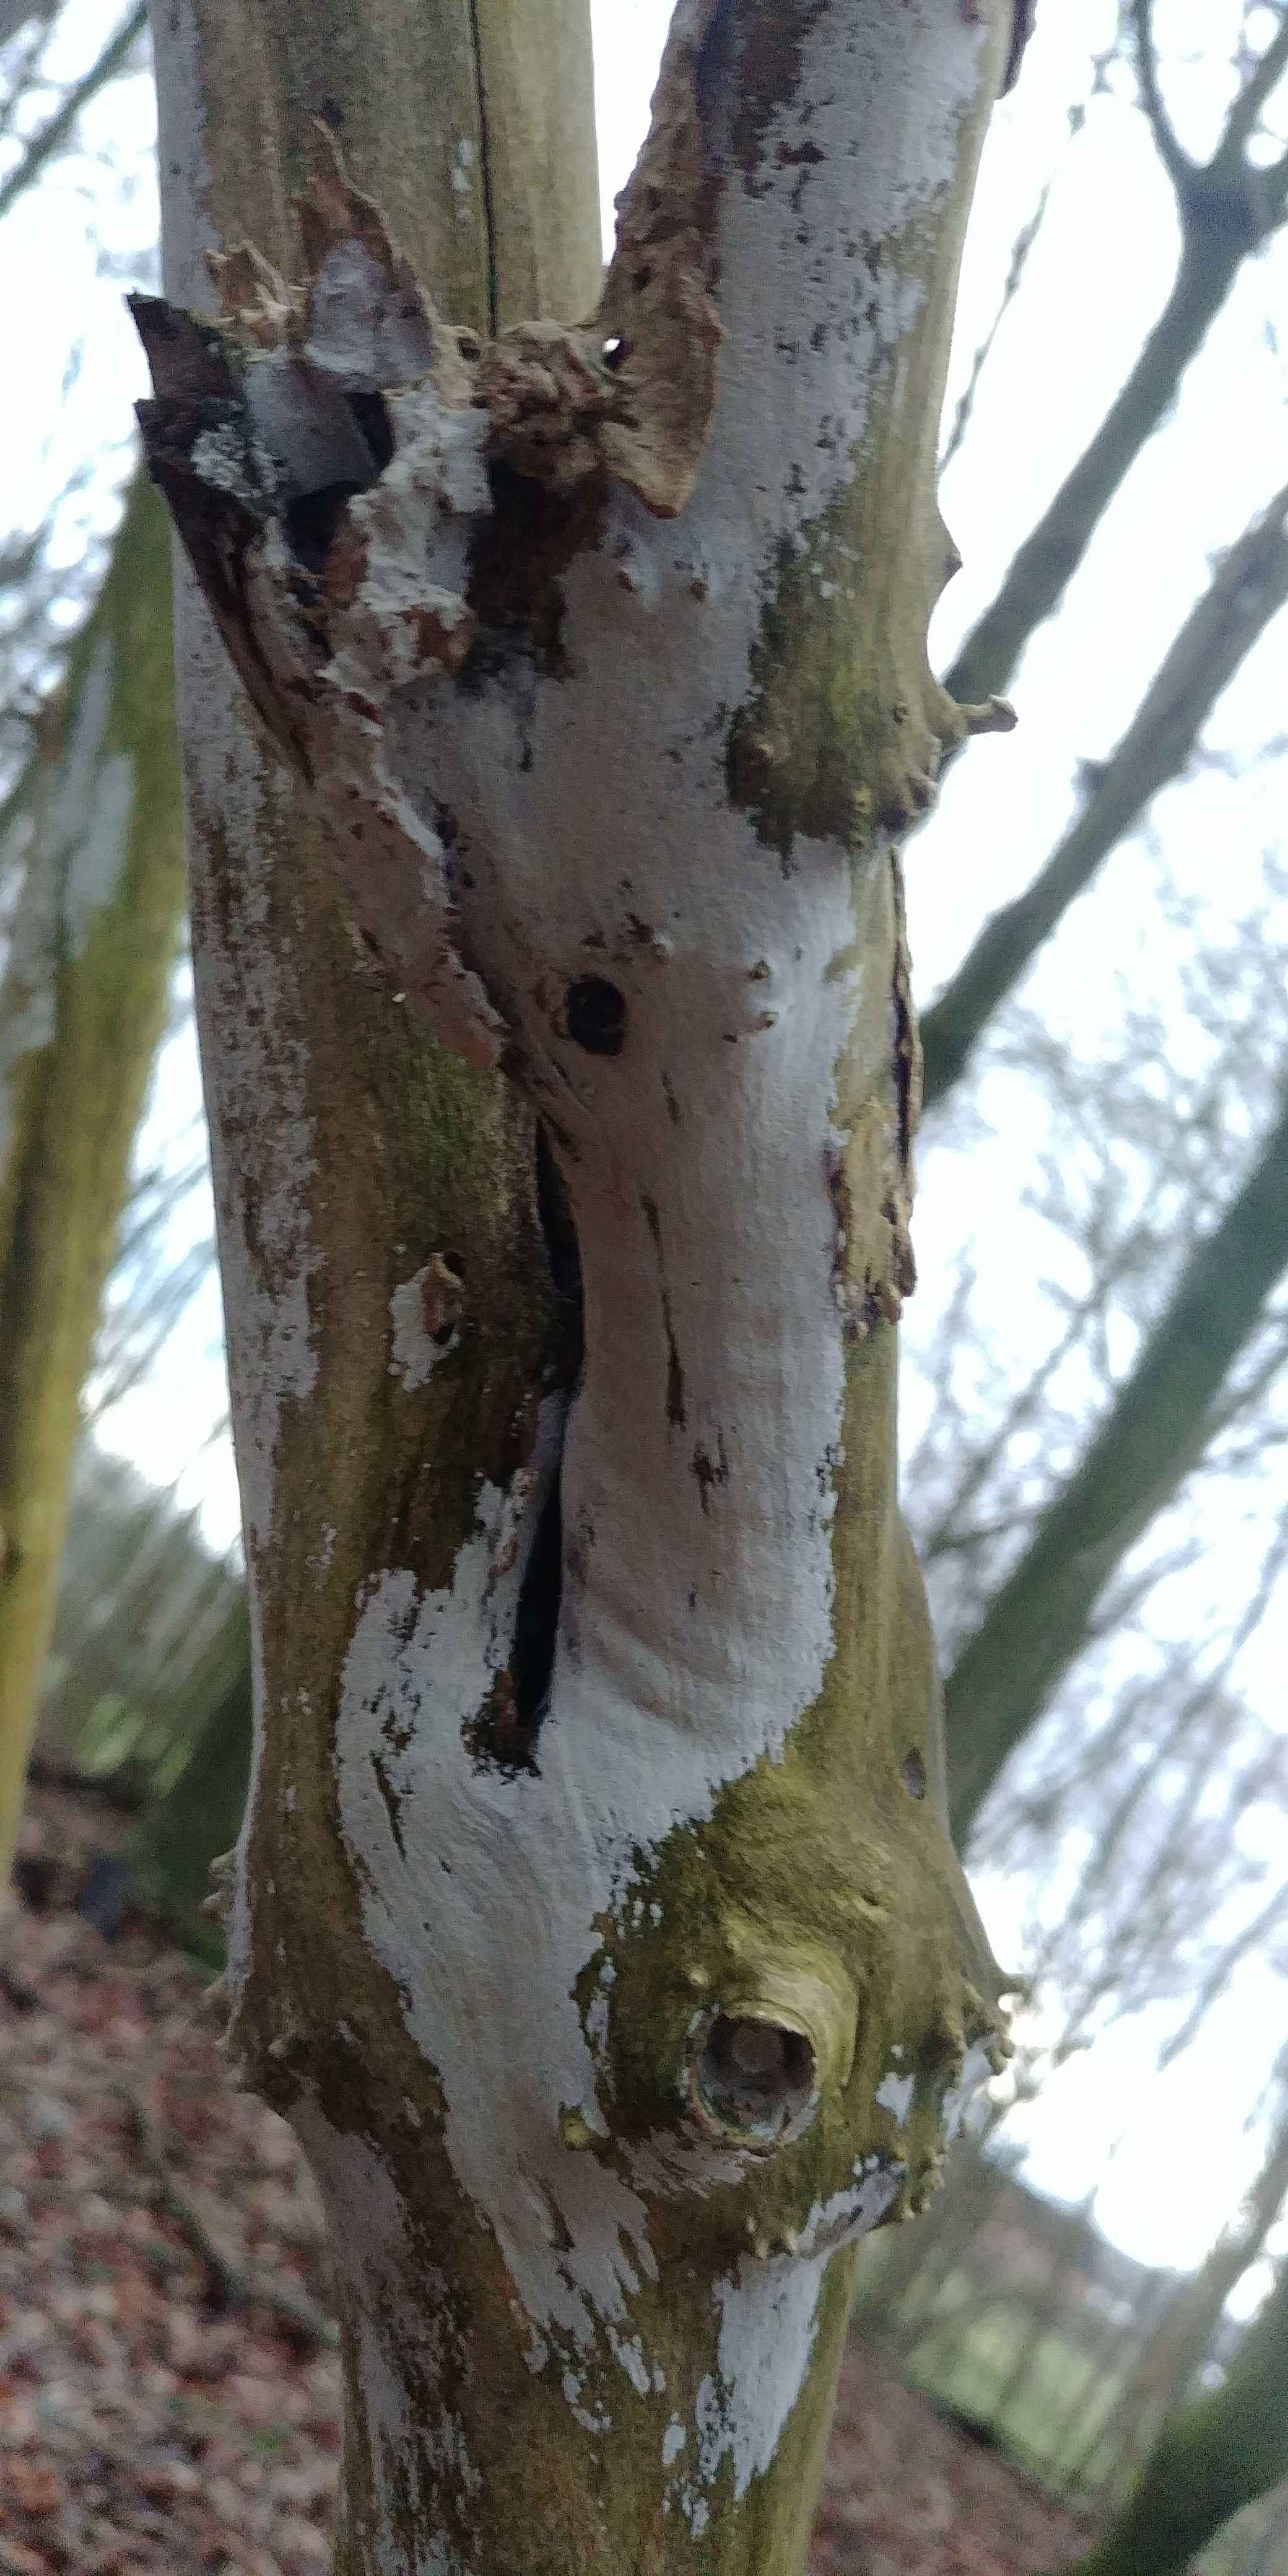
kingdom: Fungi
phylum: Basidiomycota
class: Agaricomycetes
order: Corticiales
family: Corticiaceae
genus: Lyomyces
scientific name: Lyomyces sambuci
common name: almindelig hyldehinde
